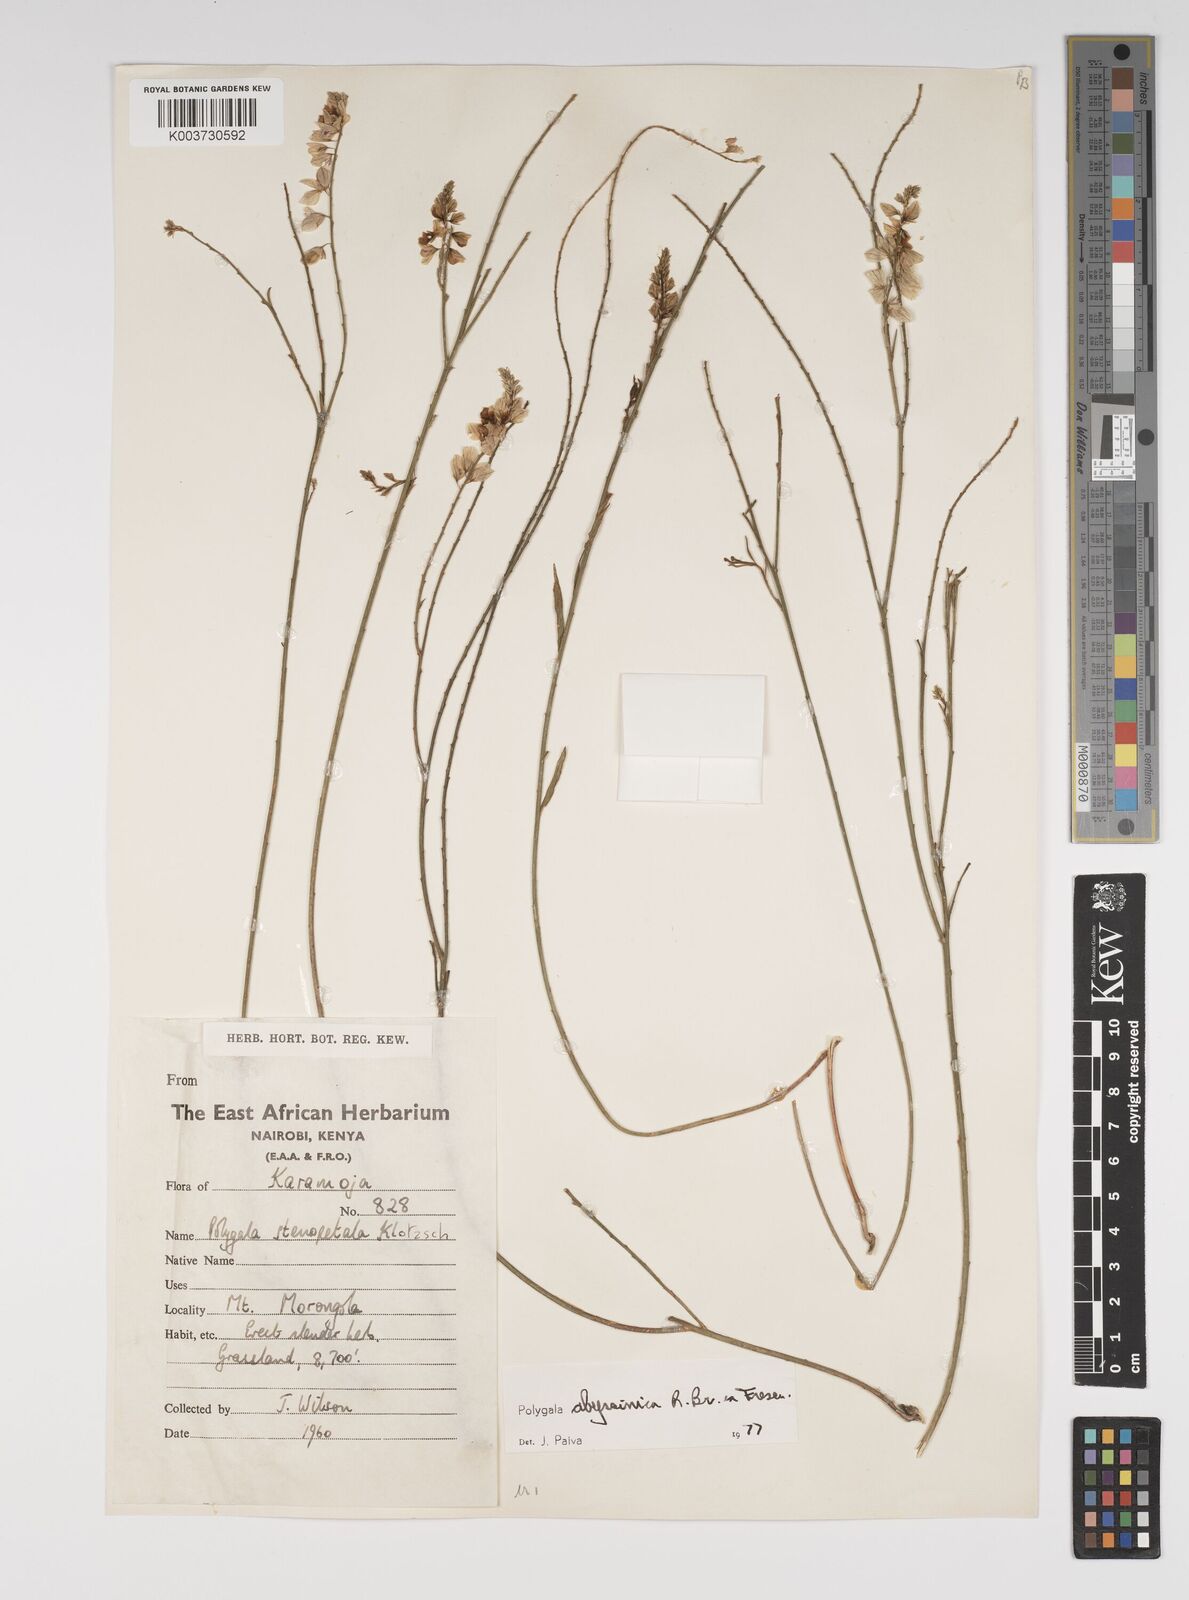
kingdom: Plantae
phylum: Tracheophyta
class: Magnoliopsida
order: Fabales
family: Polygalaceae
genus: Polygala
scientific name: Polygala abyssinica
